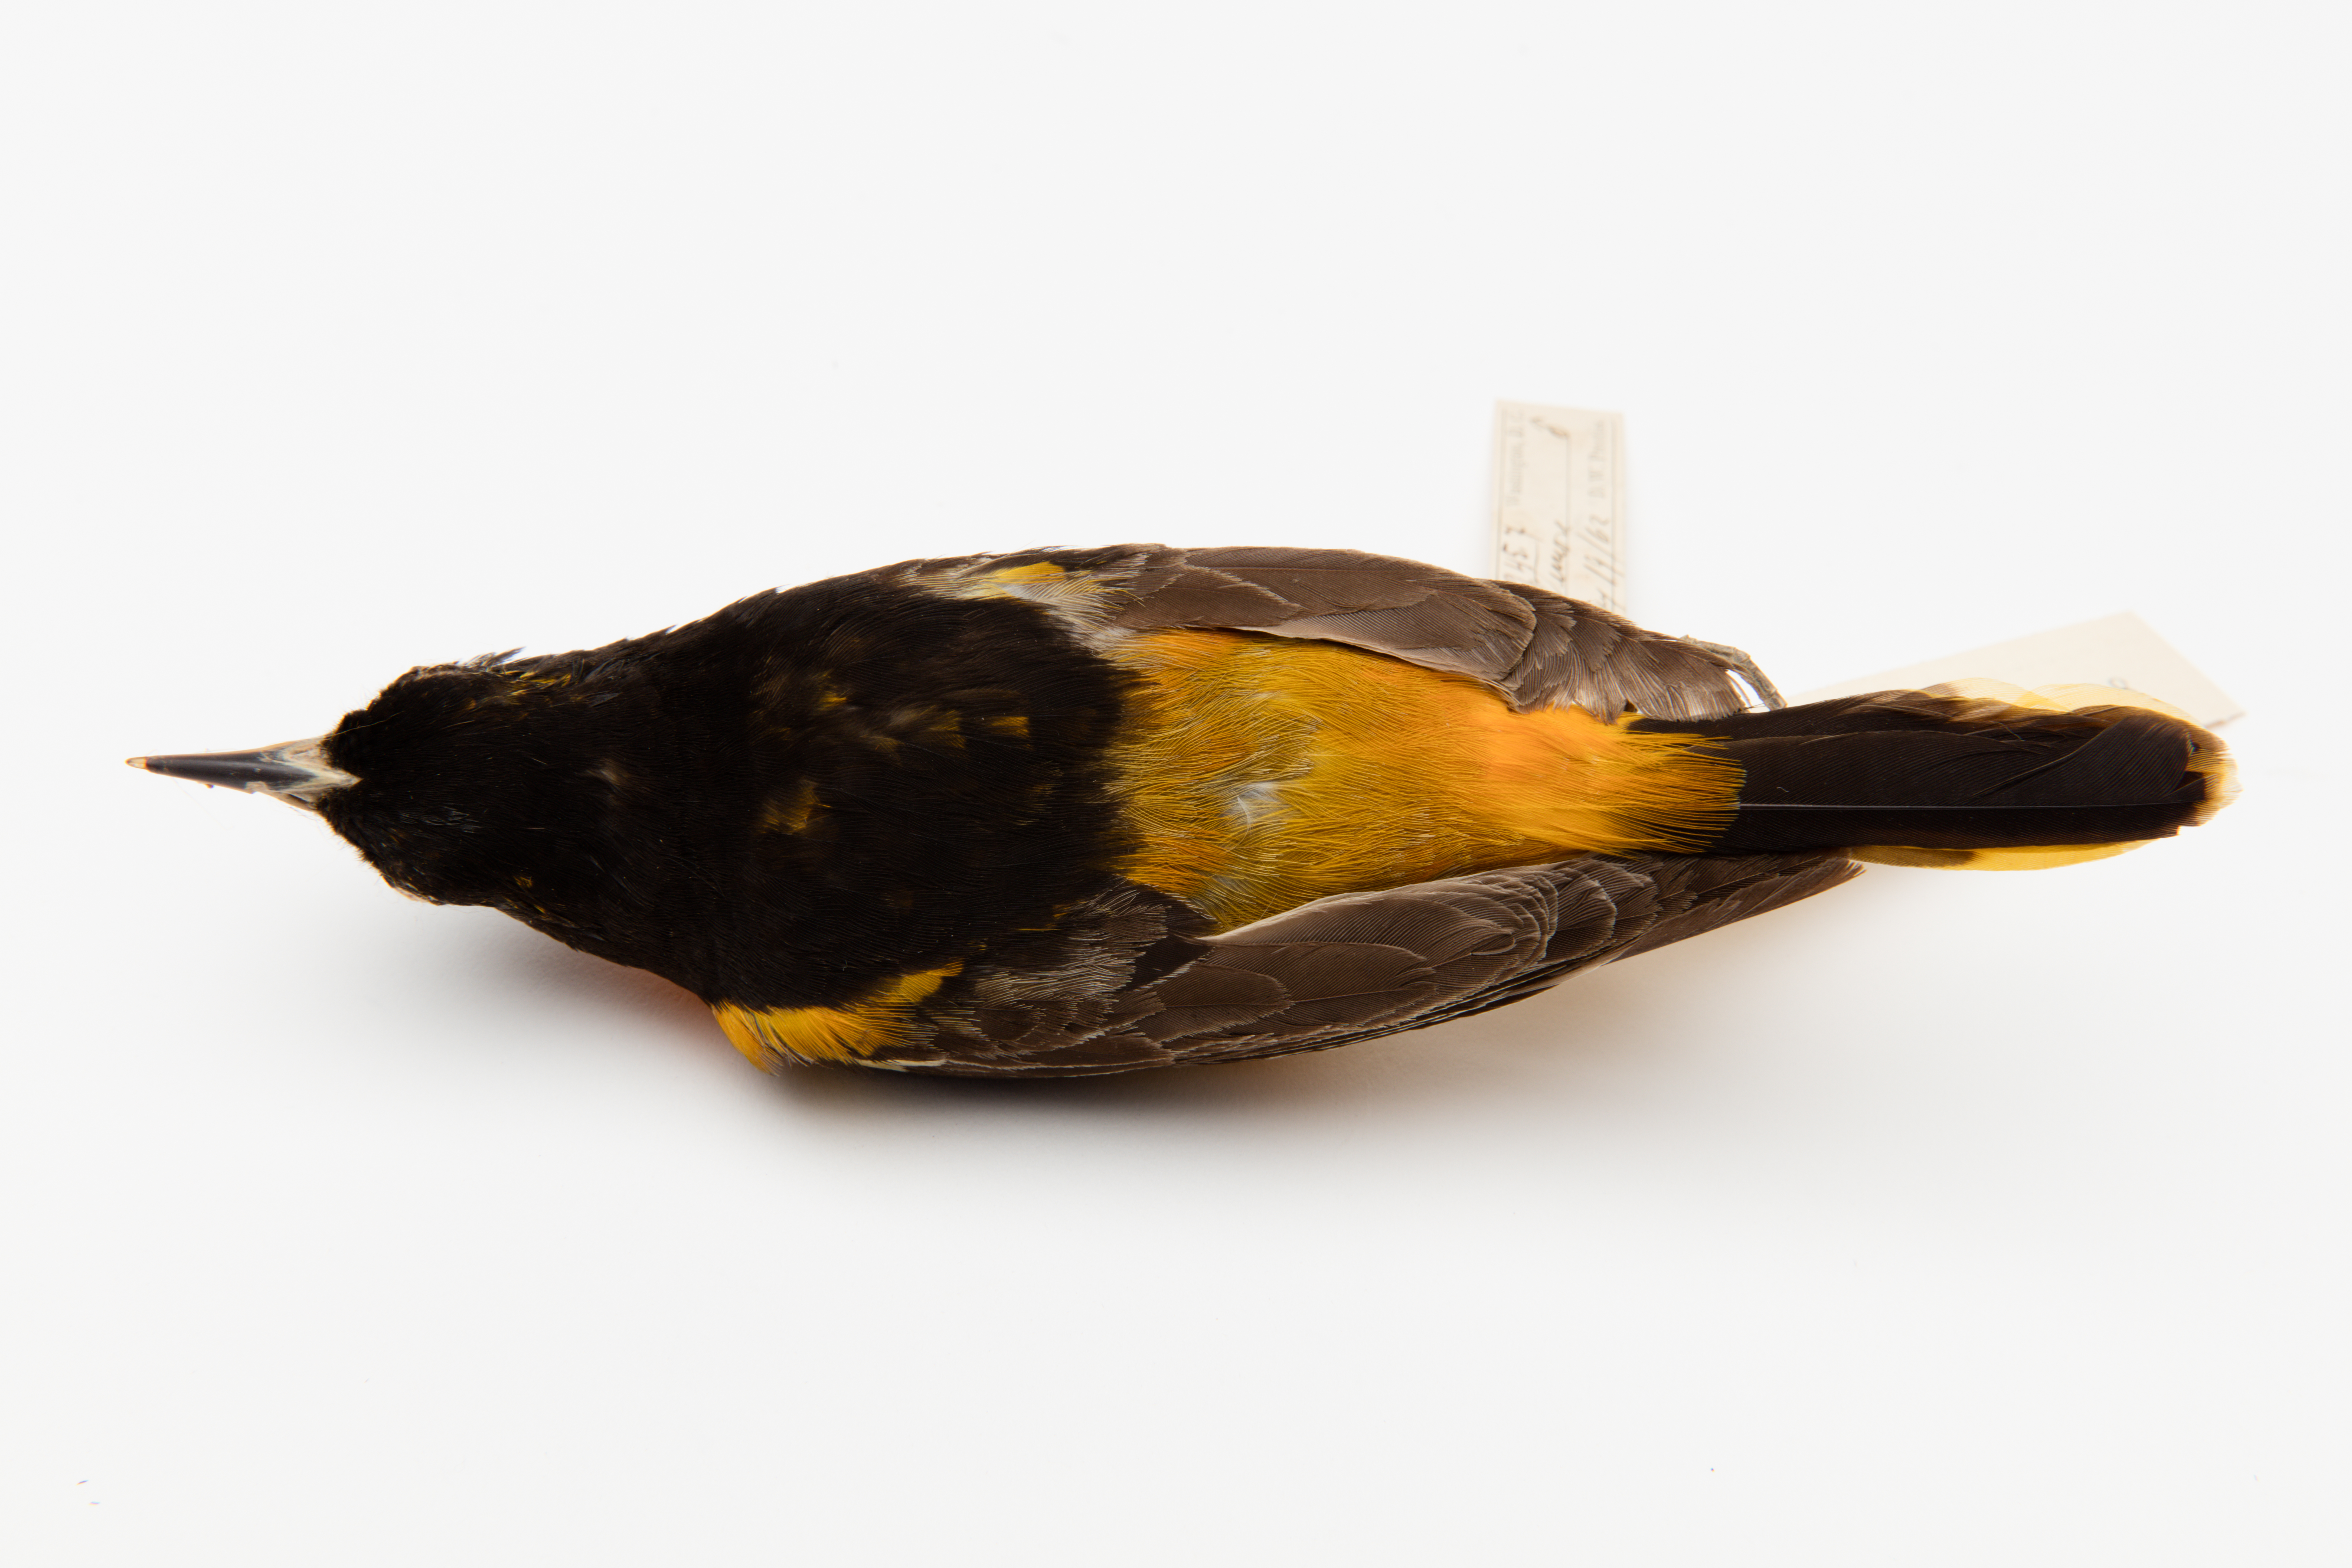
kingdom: Animalia
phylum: Chordata
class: Aves
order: Passeriformes
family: Icteridae
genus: Icterus
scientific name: Icterus galbula
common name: Baltimore oriole
